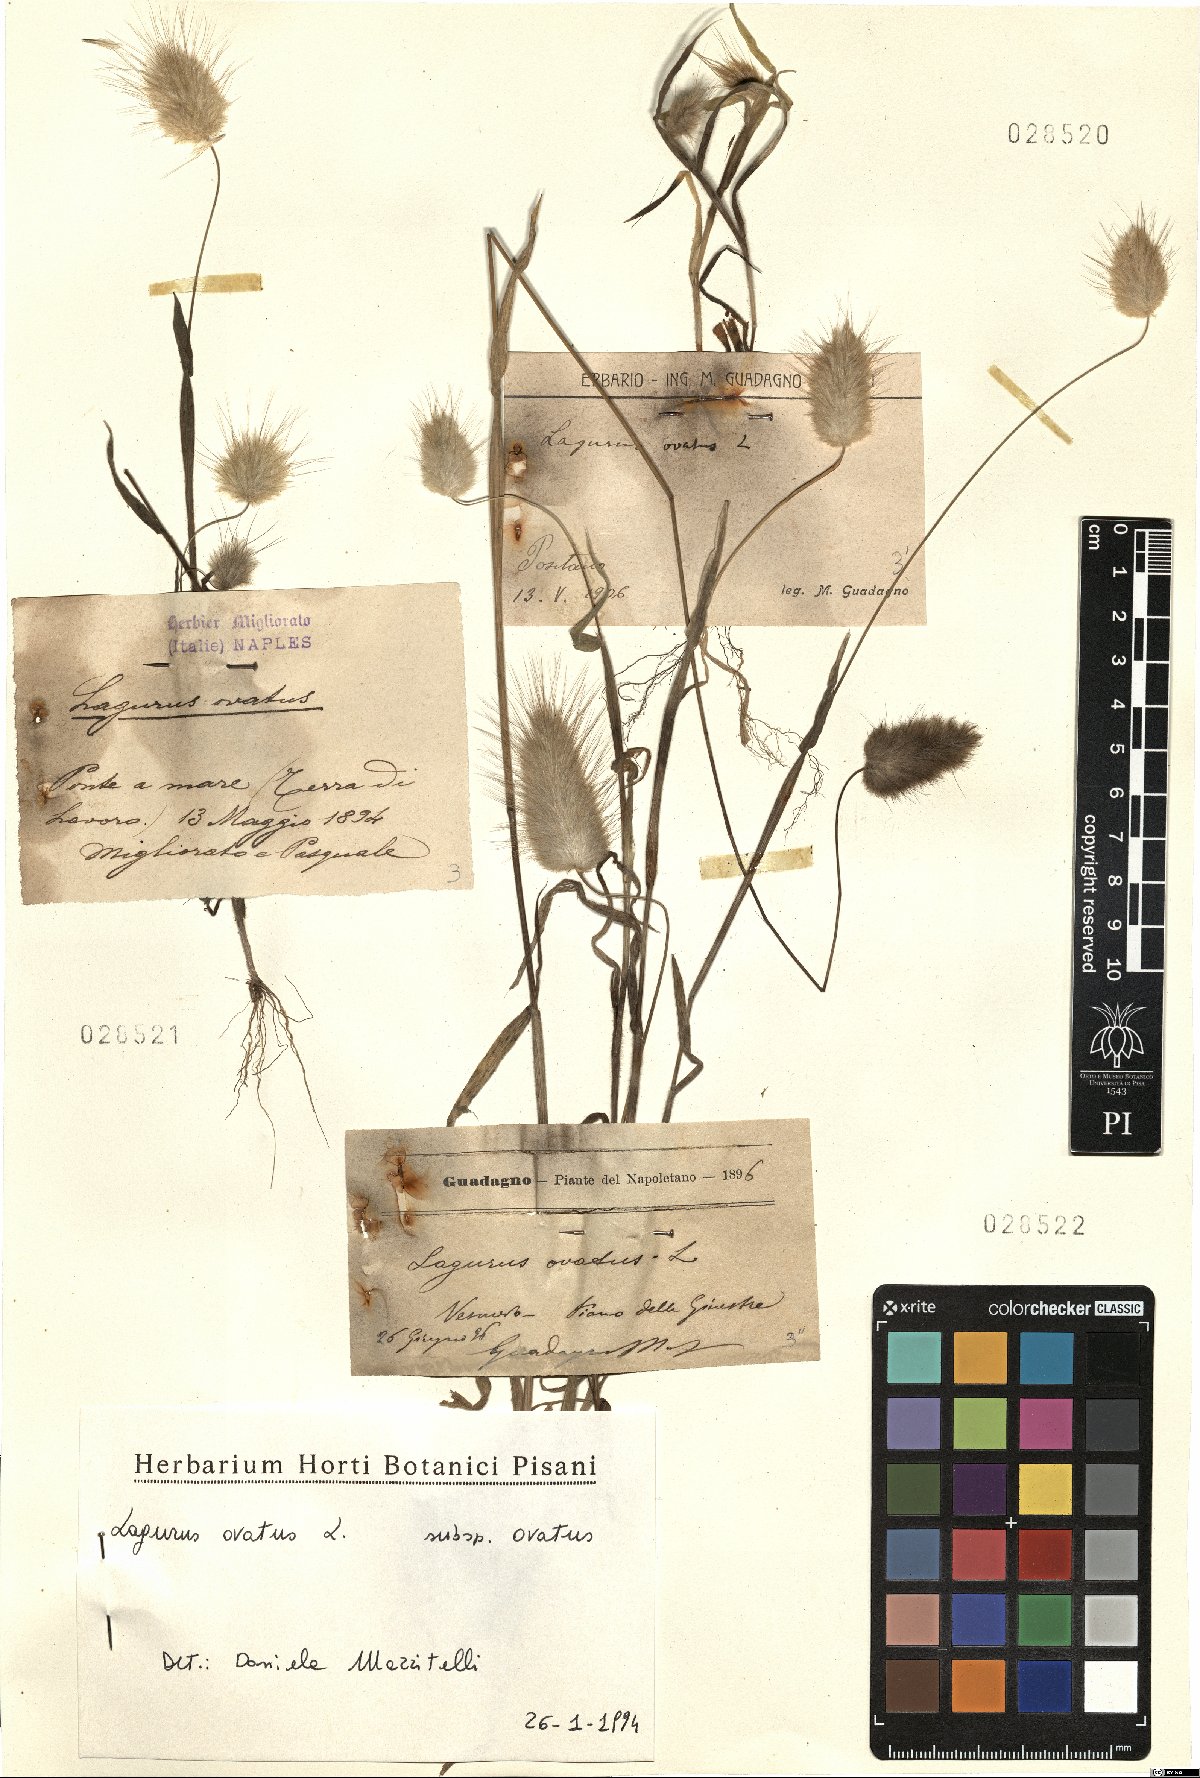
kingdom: Plantae
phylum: Tracheophyta
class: Liliopsida
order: Poales
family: Poaceae
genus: Lagurus
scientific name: Lagurus ovatus
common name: Hare's-tail
